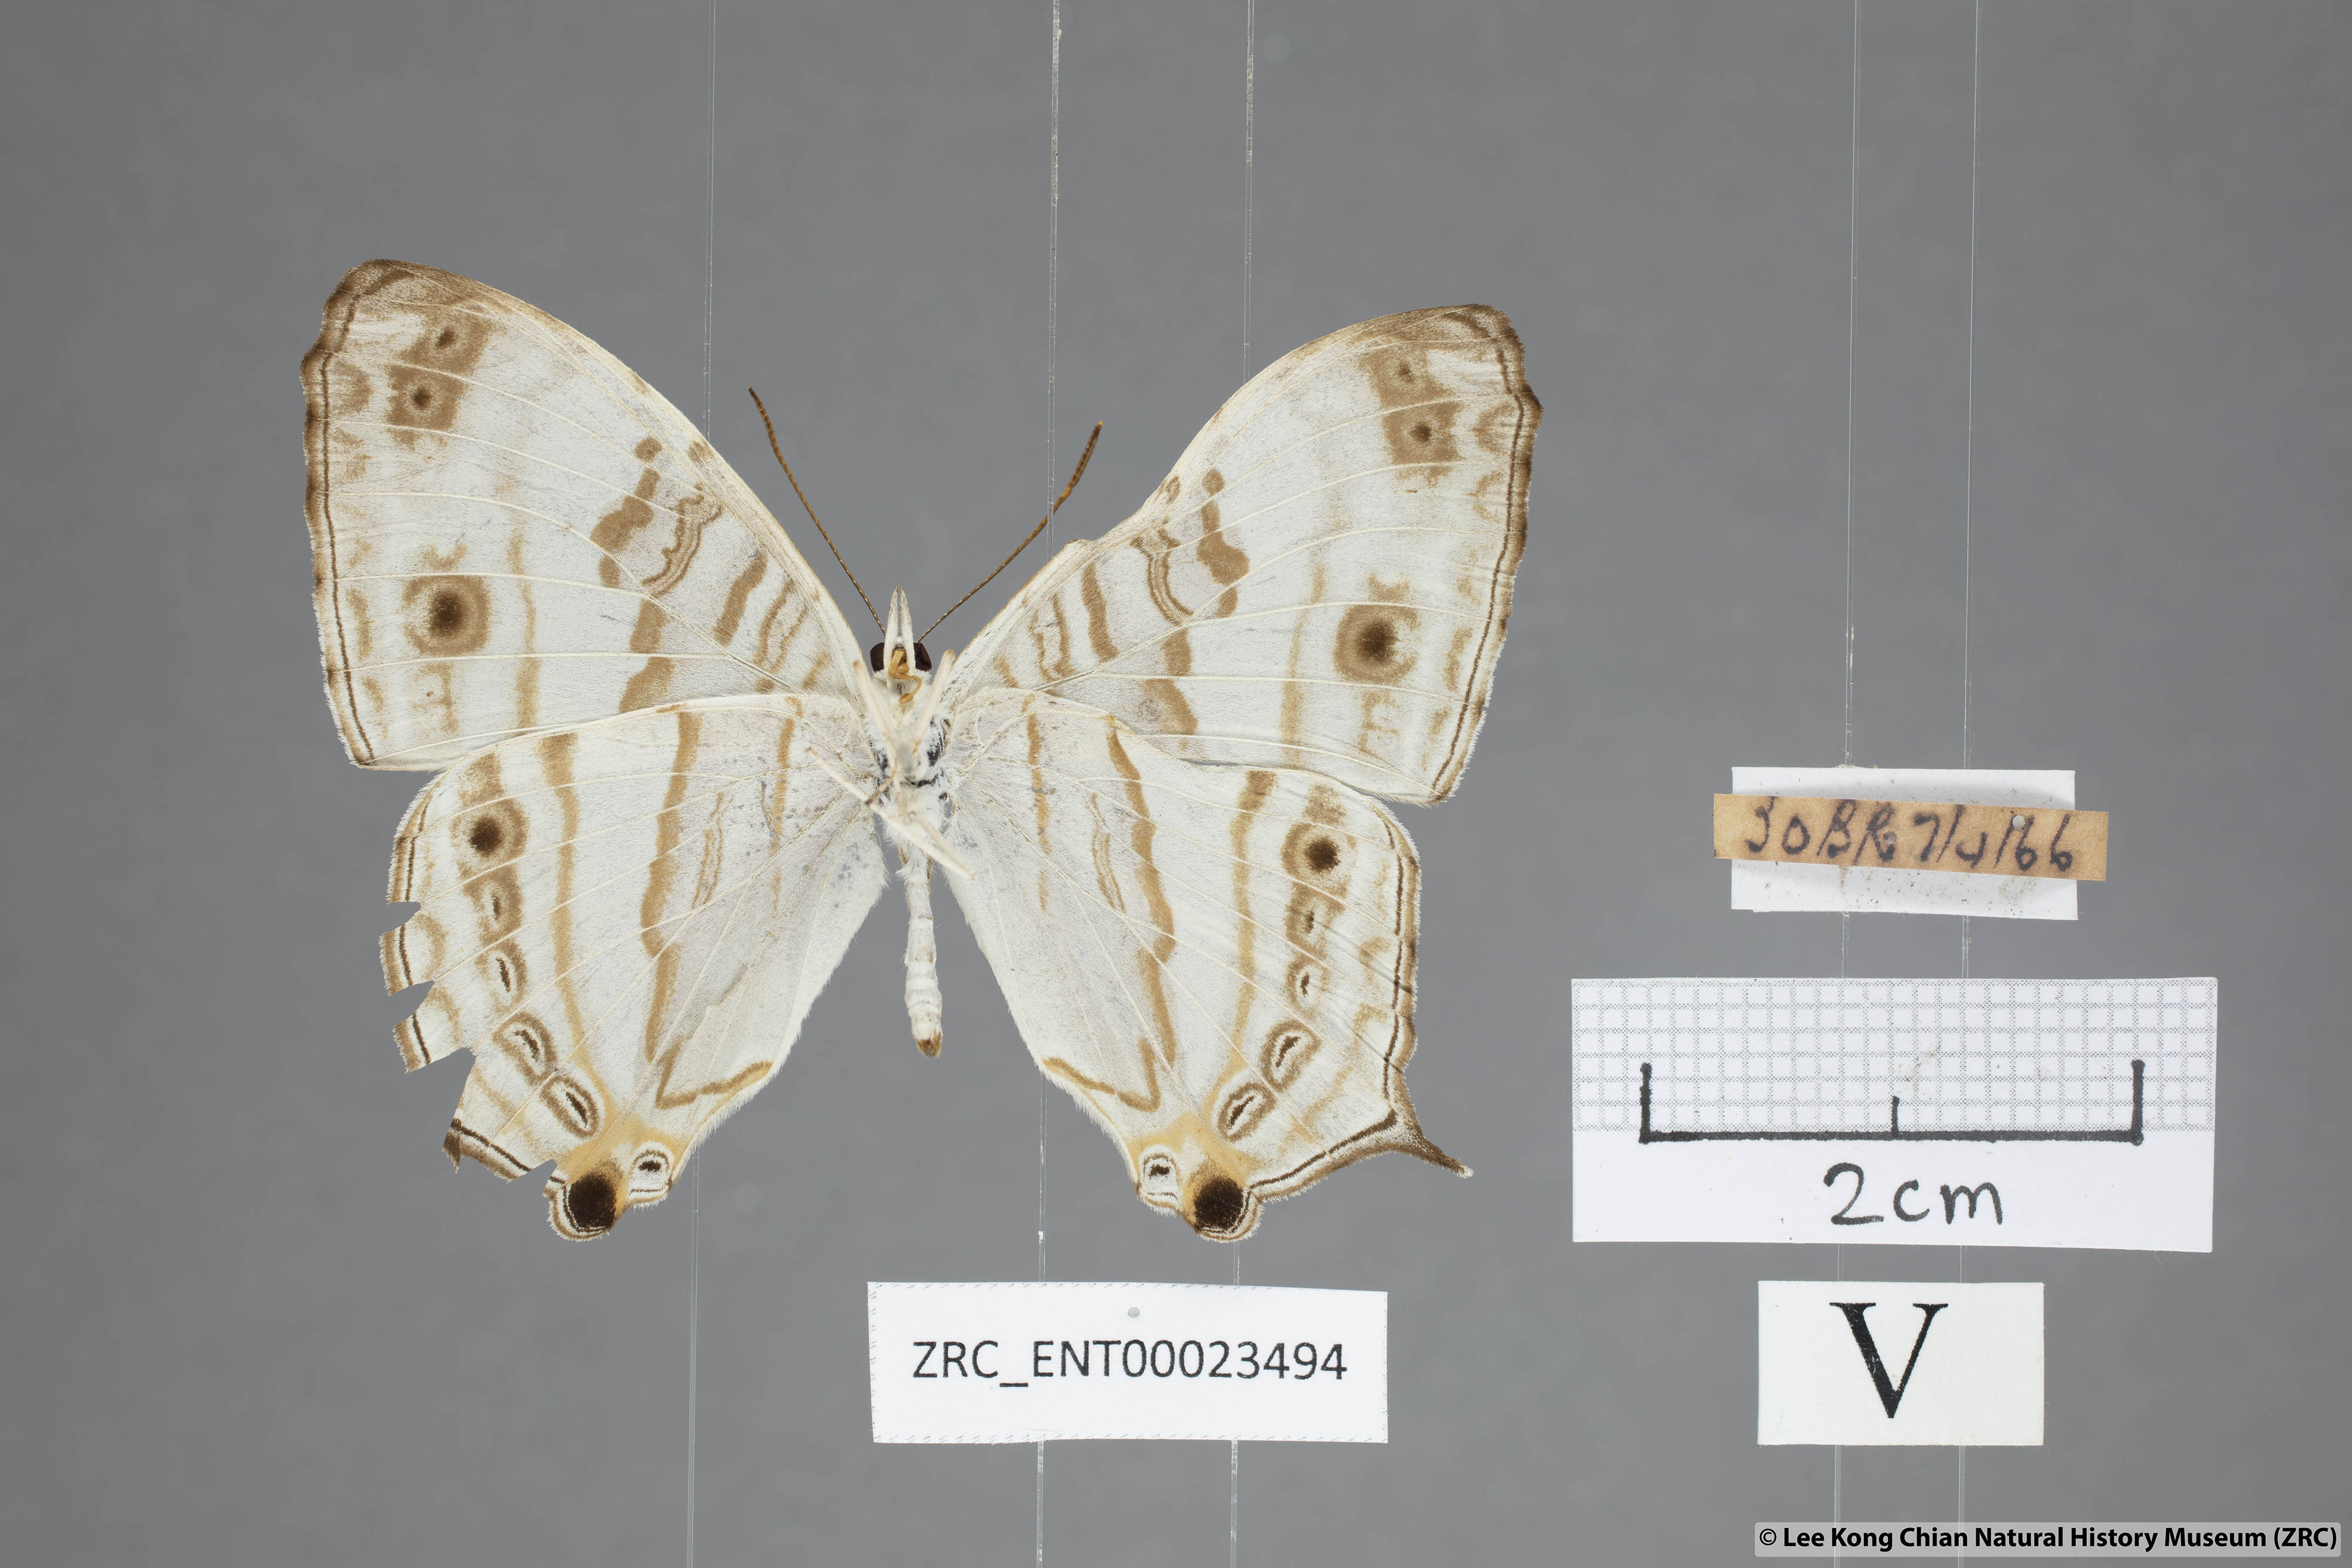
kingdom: Animalia
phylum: Arthropoda
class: Insecta
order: Lepidoptera
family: Nymphalidae
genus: Cyrestis
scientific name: Cyrestis cocles
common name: Marbled map
